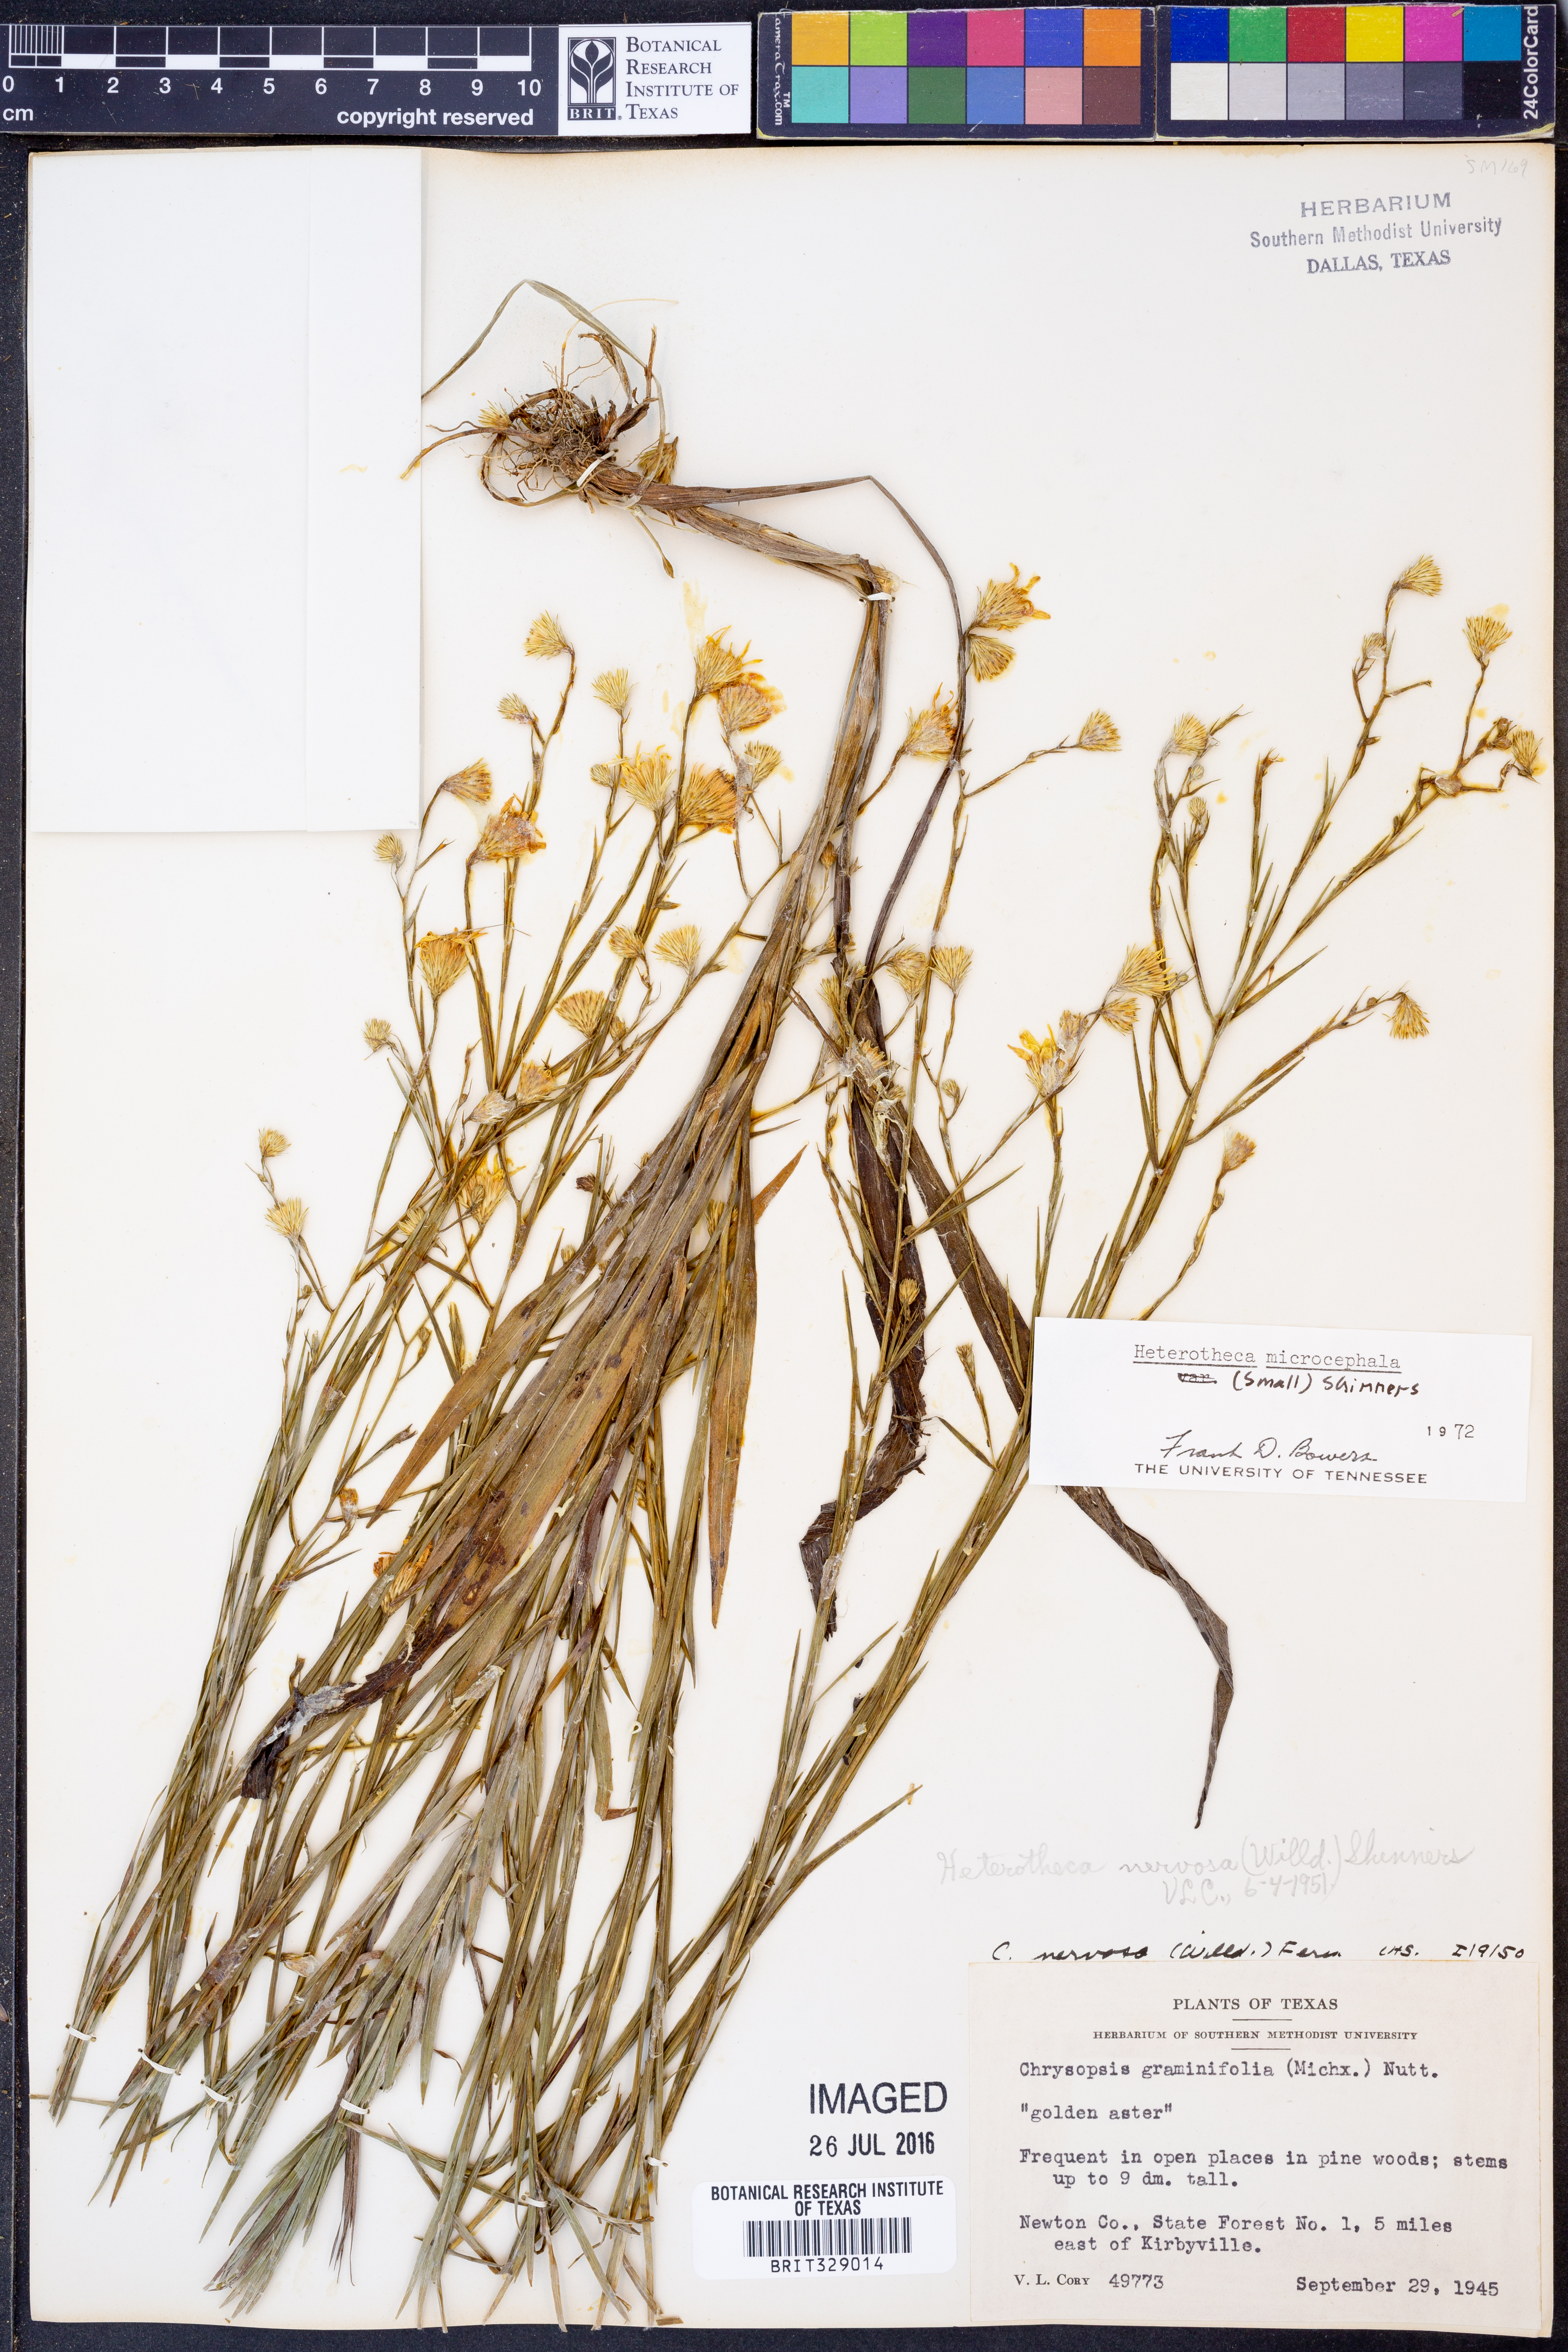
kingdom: Plantae
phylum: Tracheophyta
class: Magnoliopsida
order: Asterales
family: Asteraceae
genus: Pityopsis
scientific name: Pityopsis microcephala
